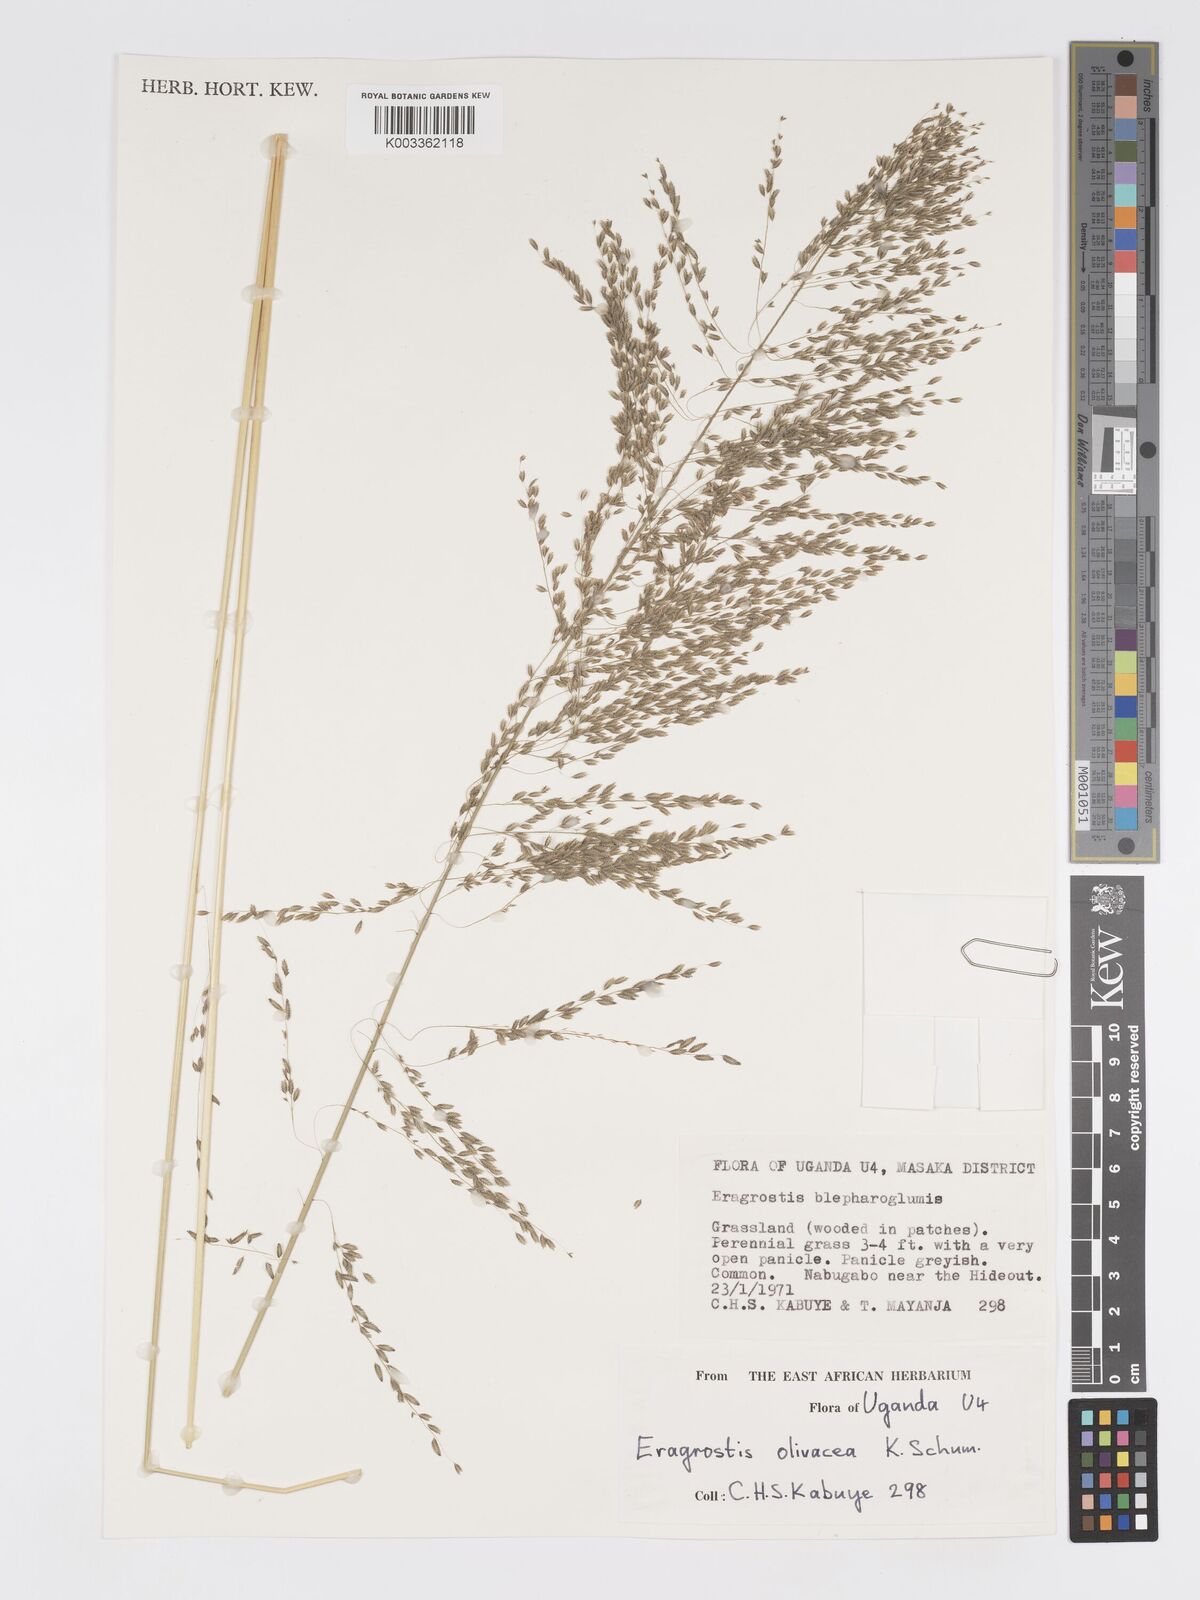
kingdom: Plantae
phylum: Tracheophyta
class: Liliopsida
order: Poales
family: Poaceae
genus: Eragrostis
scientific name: Eragrostis olivacea
